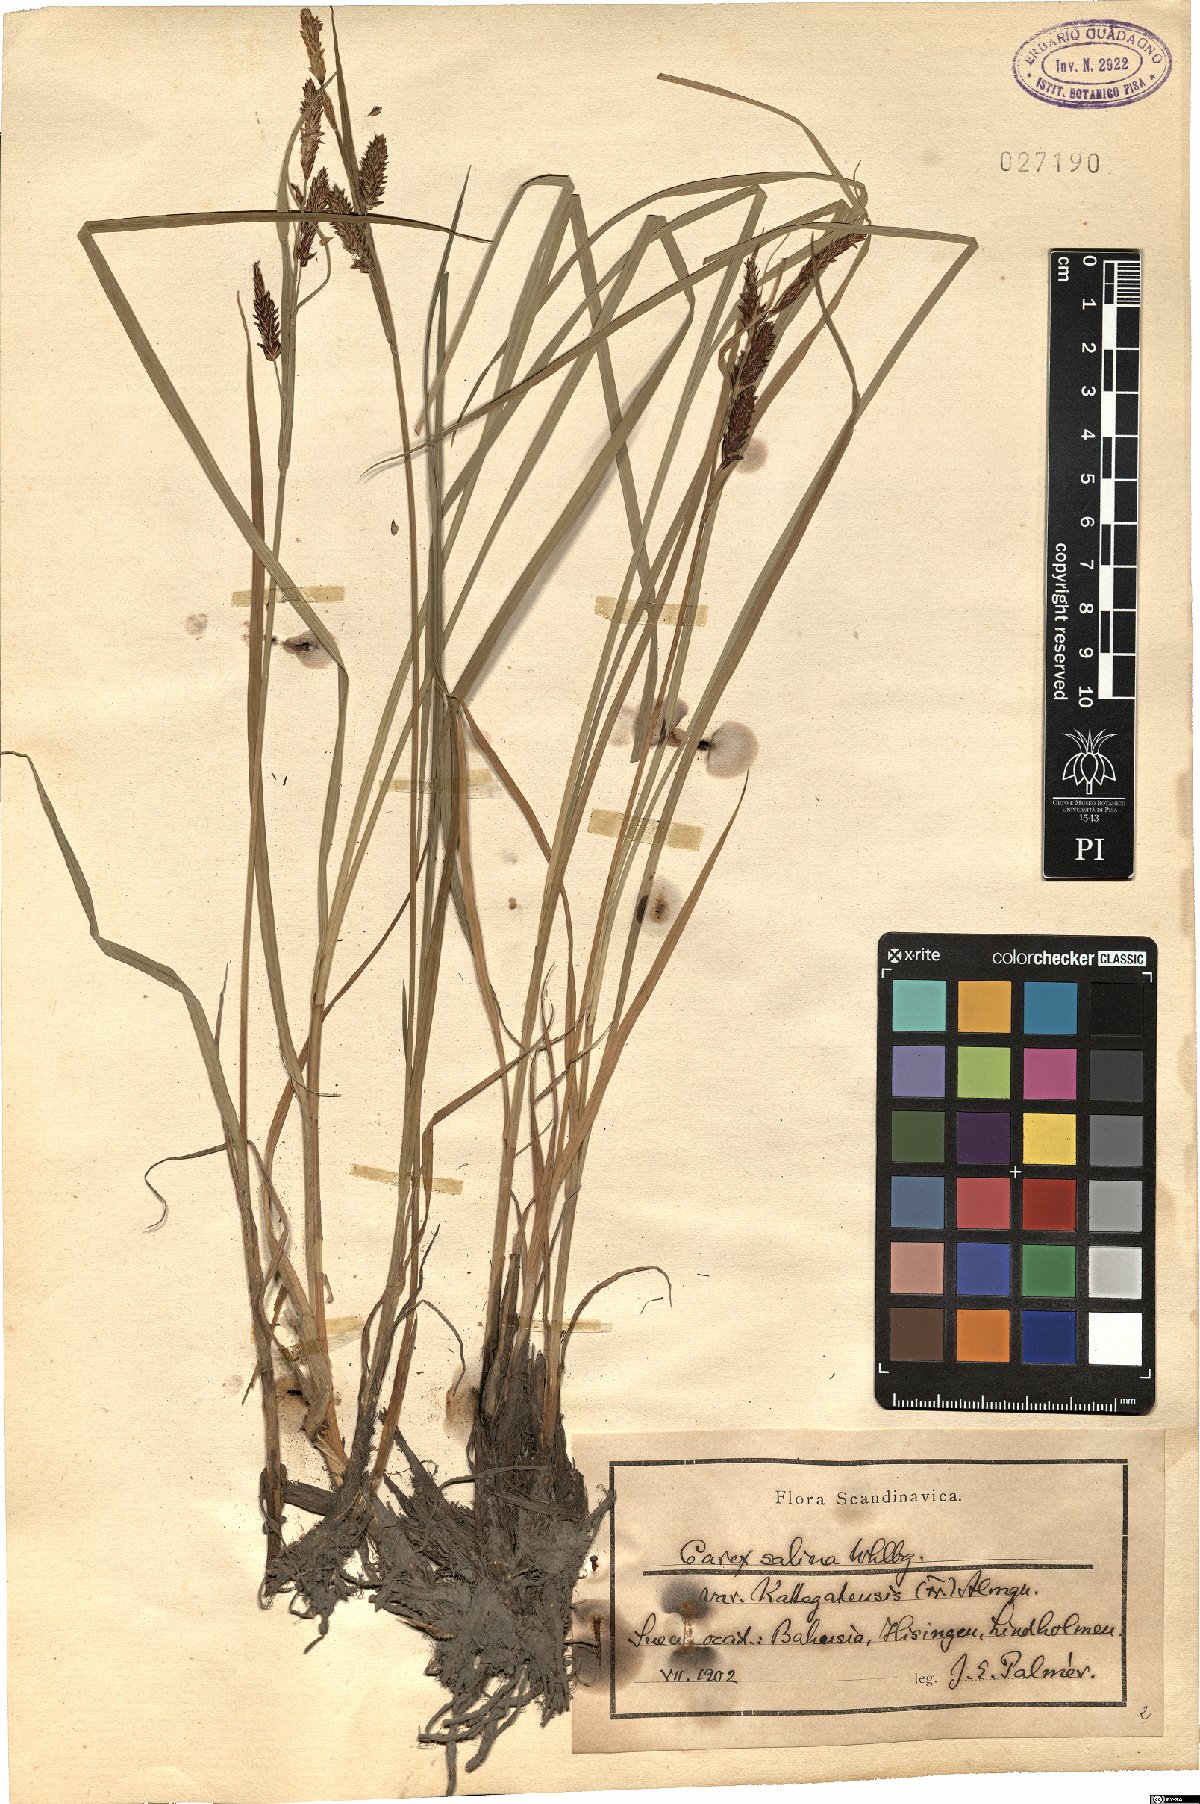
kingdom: Plantae
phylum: Tracheophyta
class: Liliopsida
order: Poales
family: Cyperaceae
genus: Carex
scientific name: Carex vacillans
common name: Sedge
